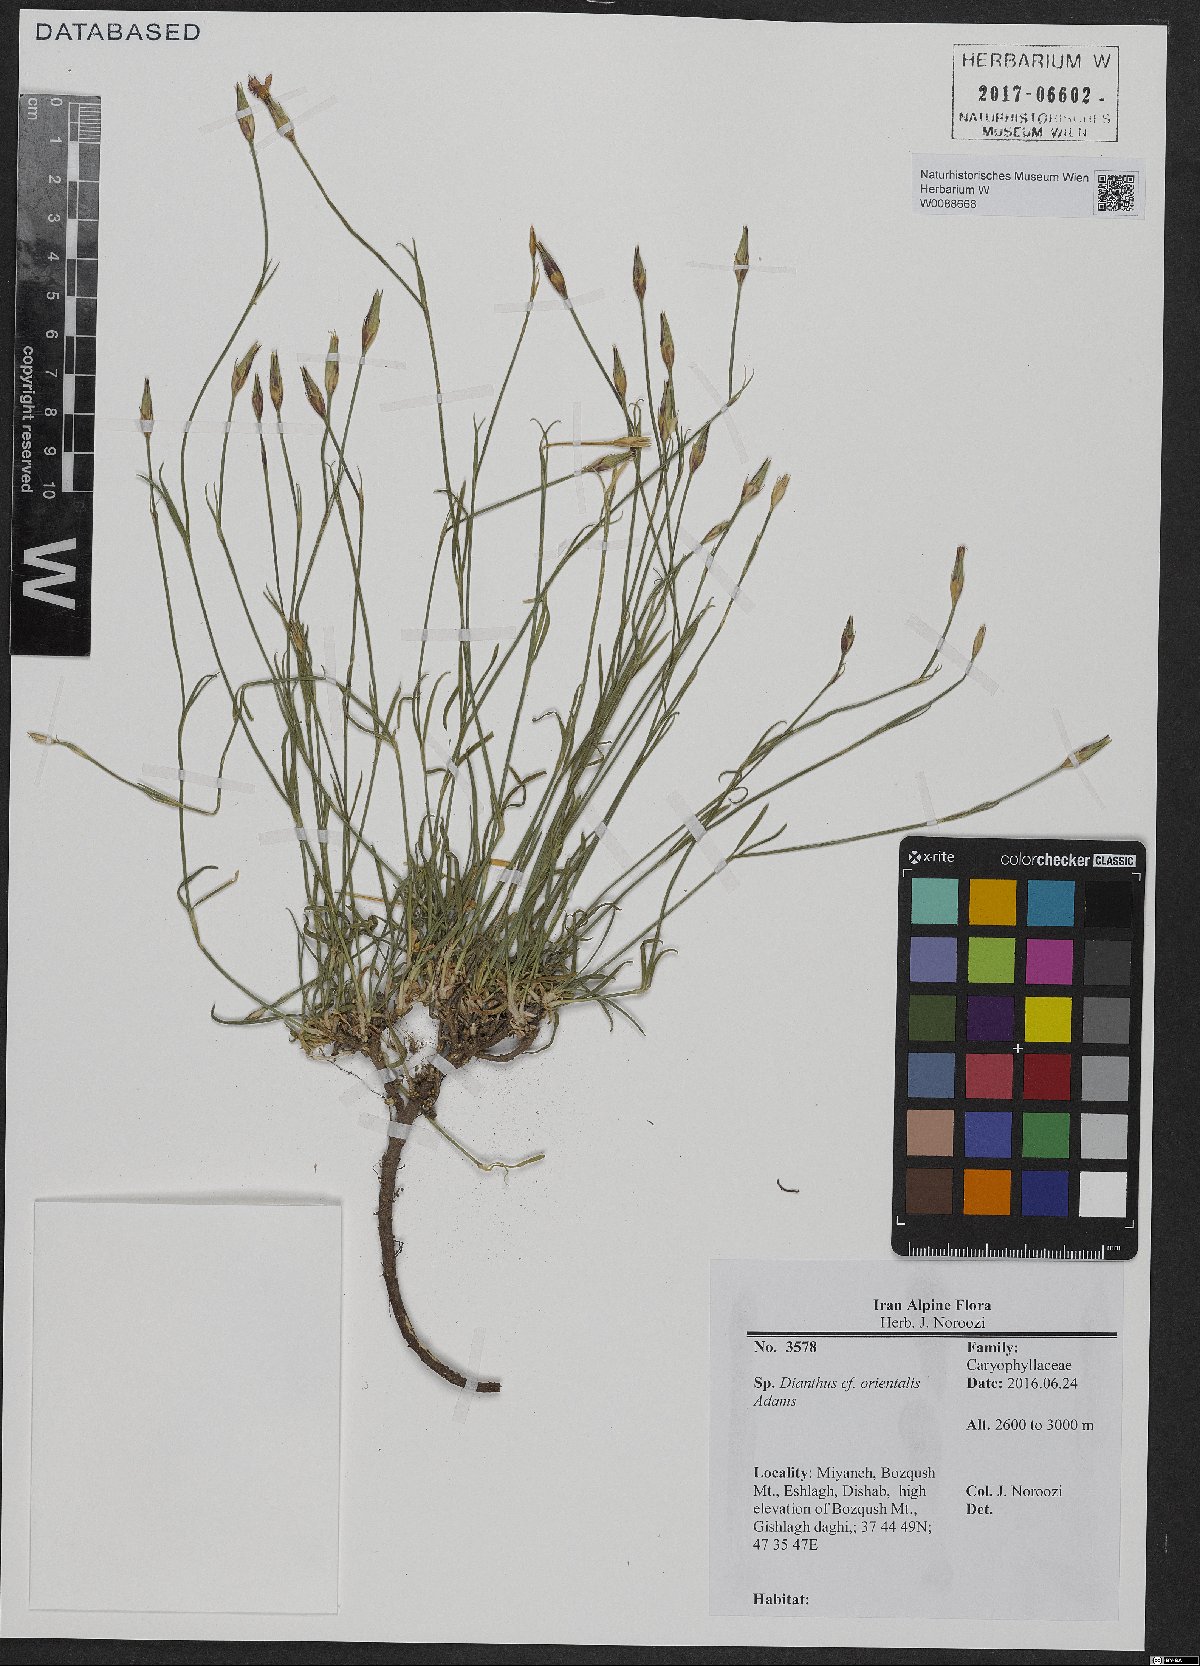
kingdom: Plantae
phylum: Tracheophyta
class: Magnoliopsida
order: Caryophyllales
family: Caryophyllaceae
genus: Dianthus
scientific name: Dianthus orientalis
